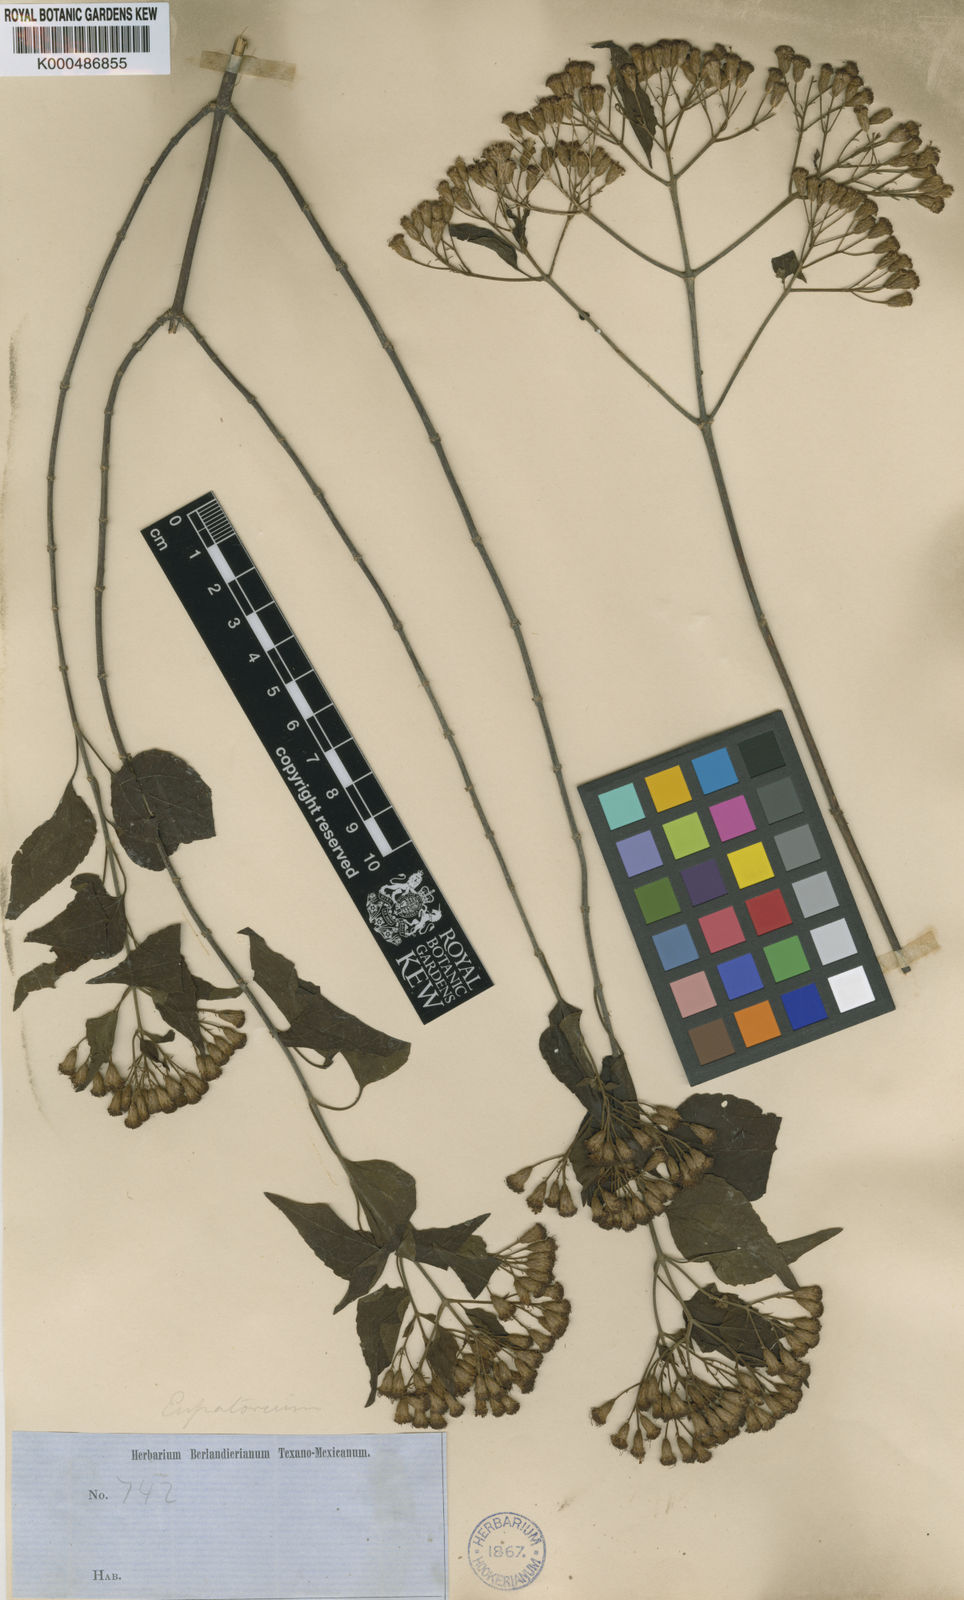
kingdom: Plantae
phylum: Tracheophyta
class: Magnoliopsida
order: Asterales
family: Asteraceae
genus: Chromolaena
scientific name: Chromolaena collina
